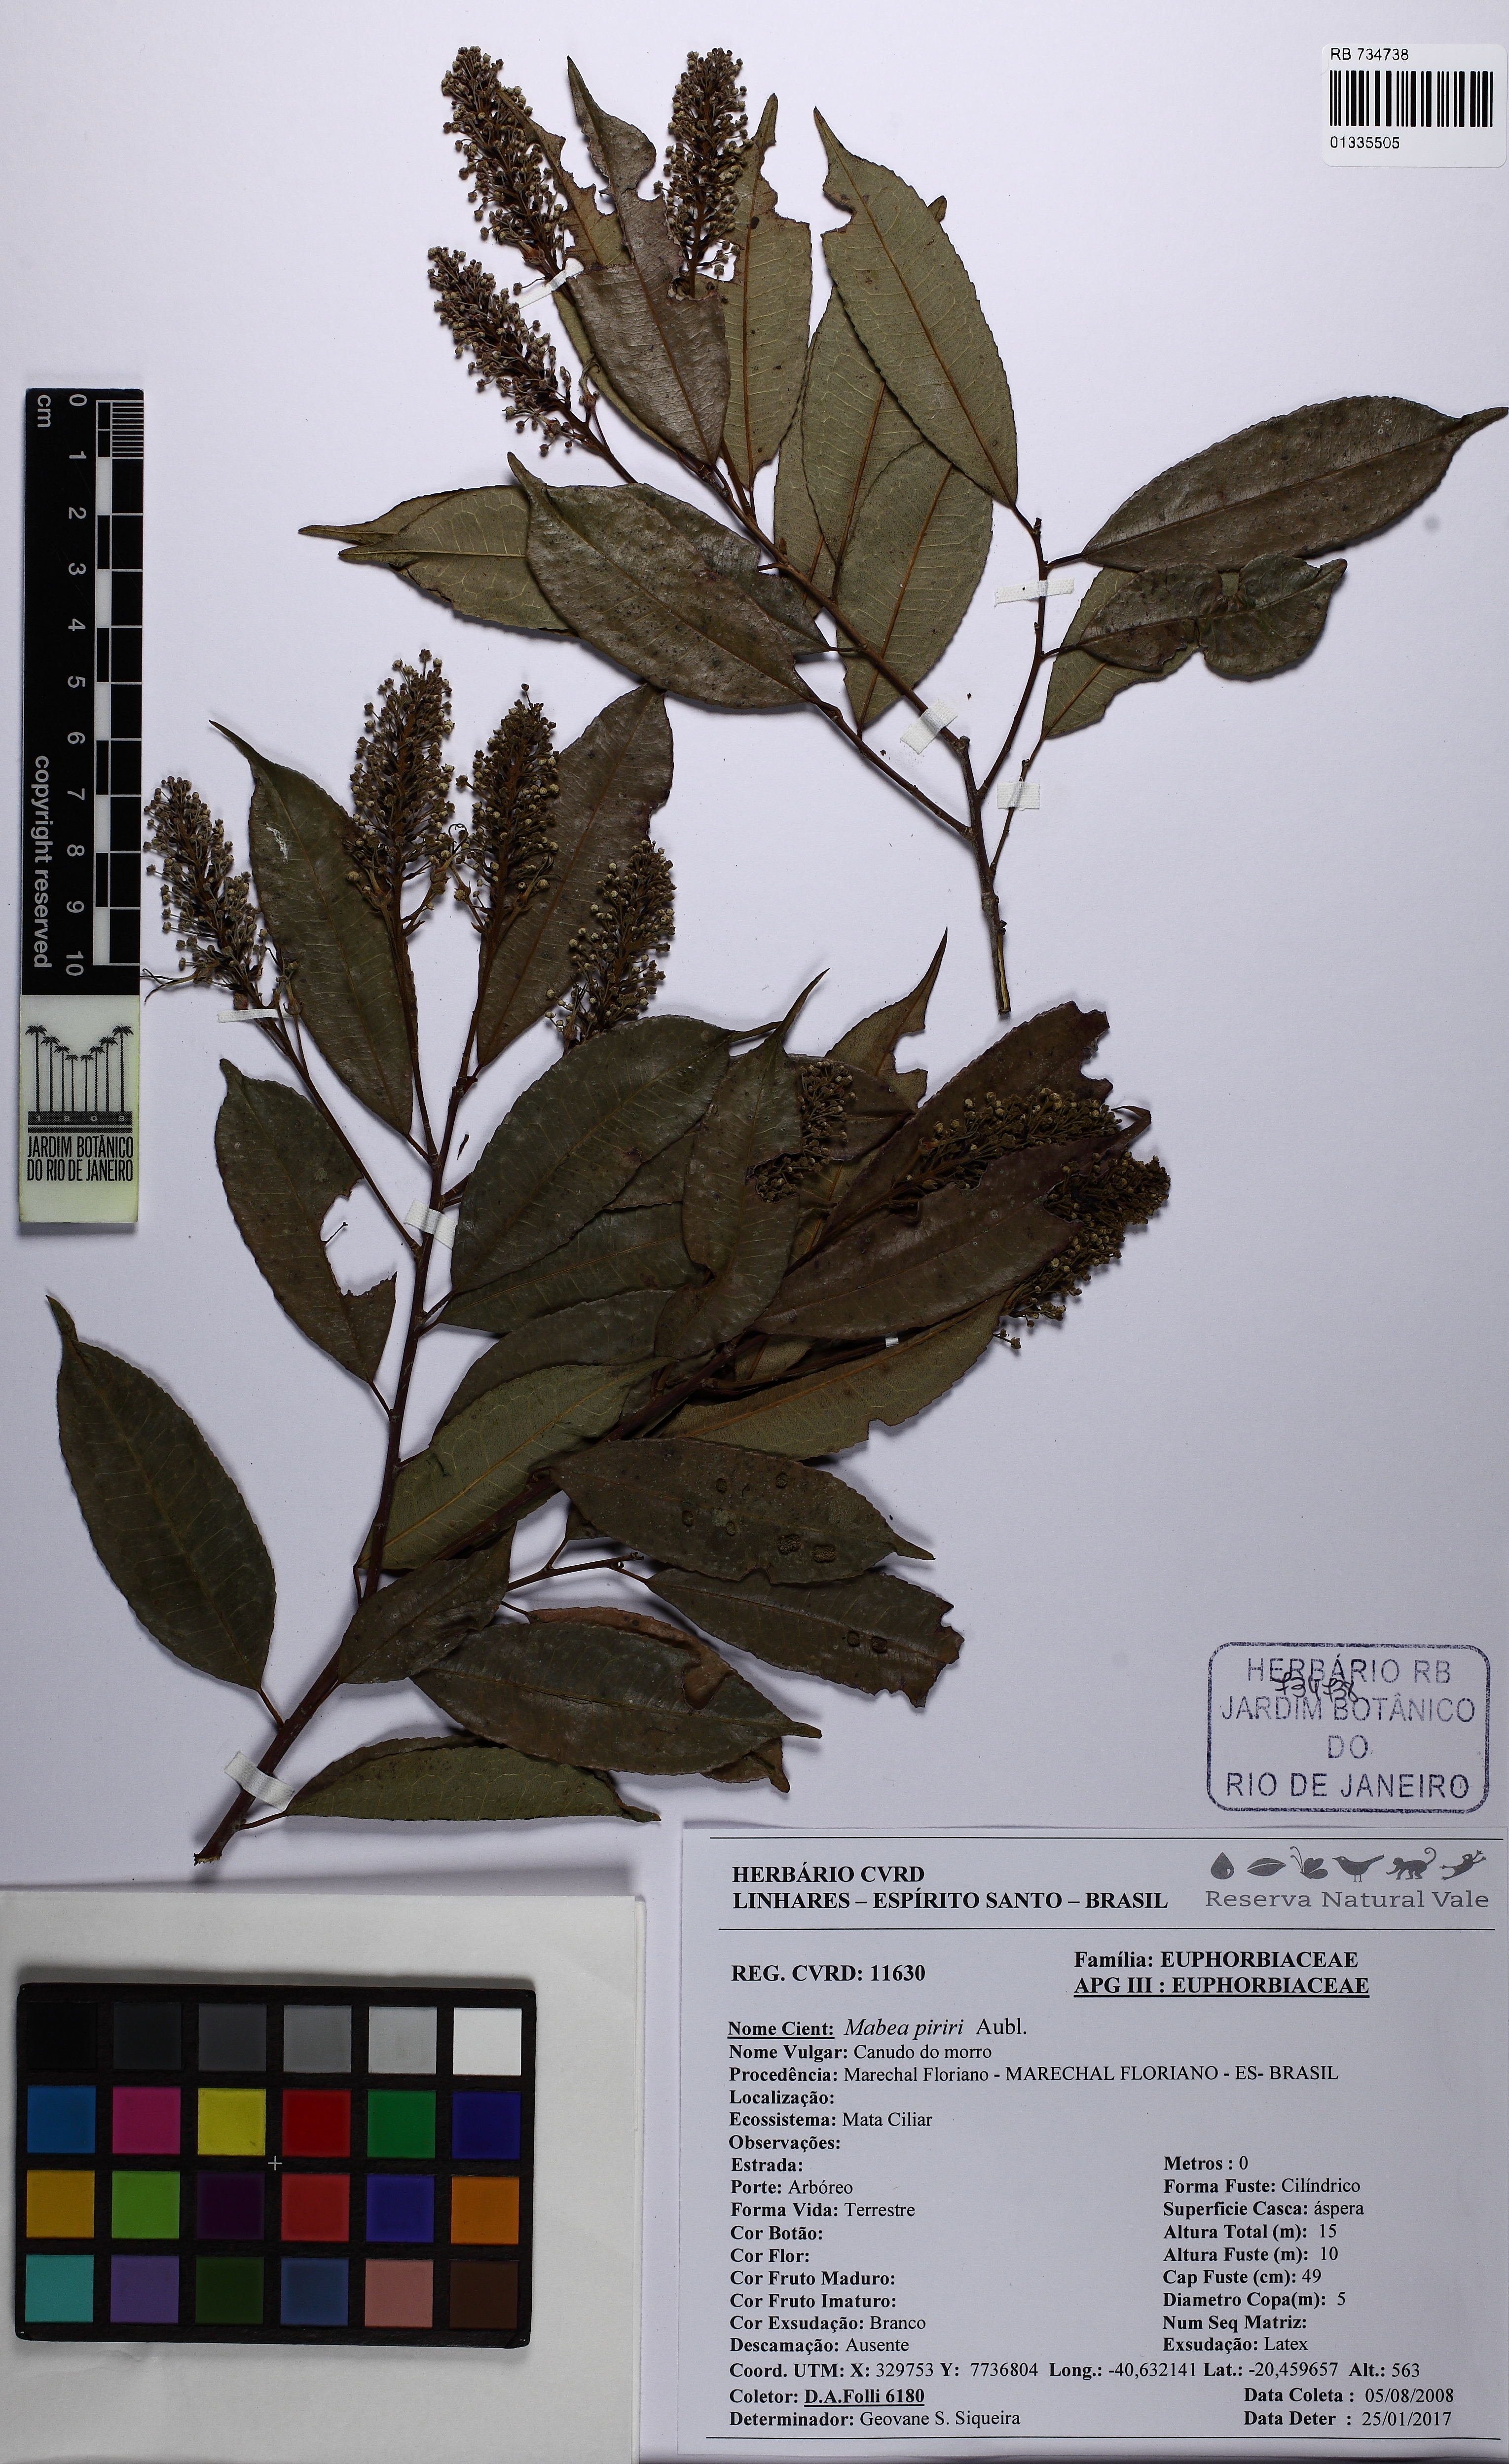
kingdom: Plantae
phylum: Tracheophyta
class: Magnoliopsida
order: Malpighiales
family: Euphorbiaceae
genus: Mabea
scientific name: Mabea piriri
